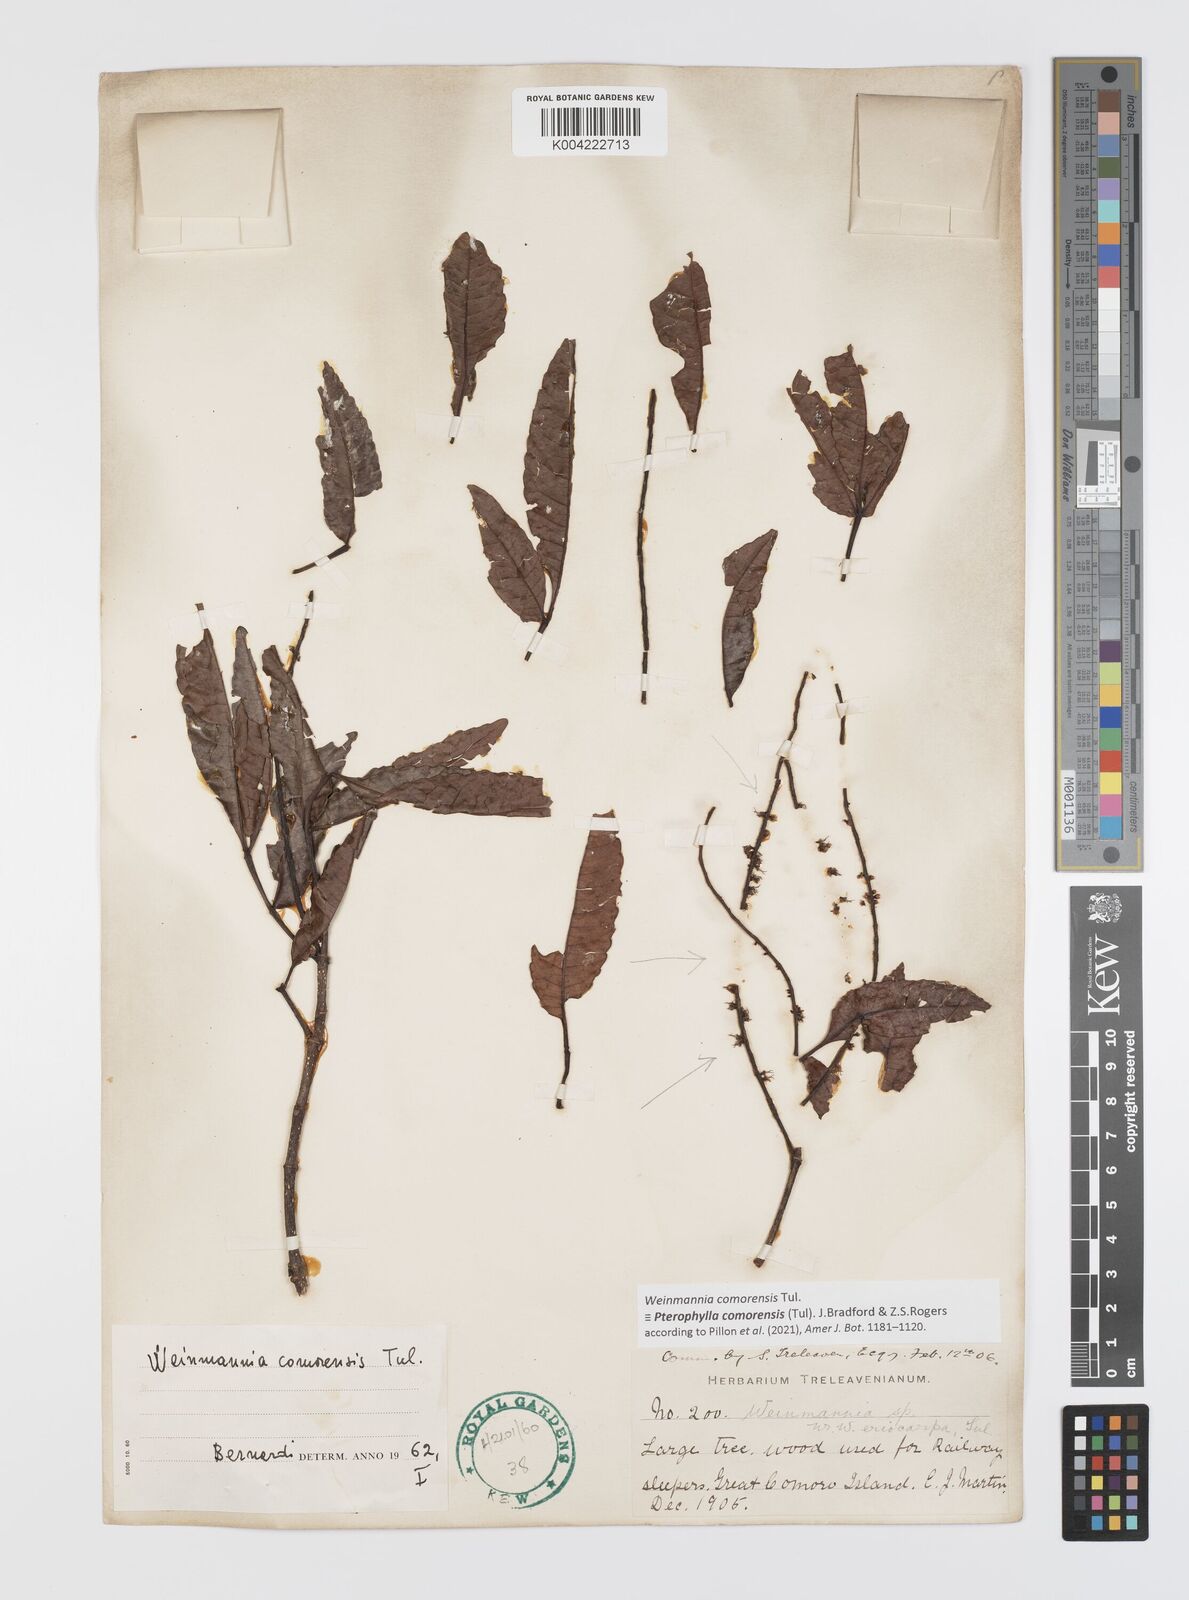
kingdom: Plantae
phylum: Tracheophyta
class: Magnoliopsida
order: Oxalidales
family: Cunoniaceae
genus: Pterophylla
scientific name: Pterophylla
